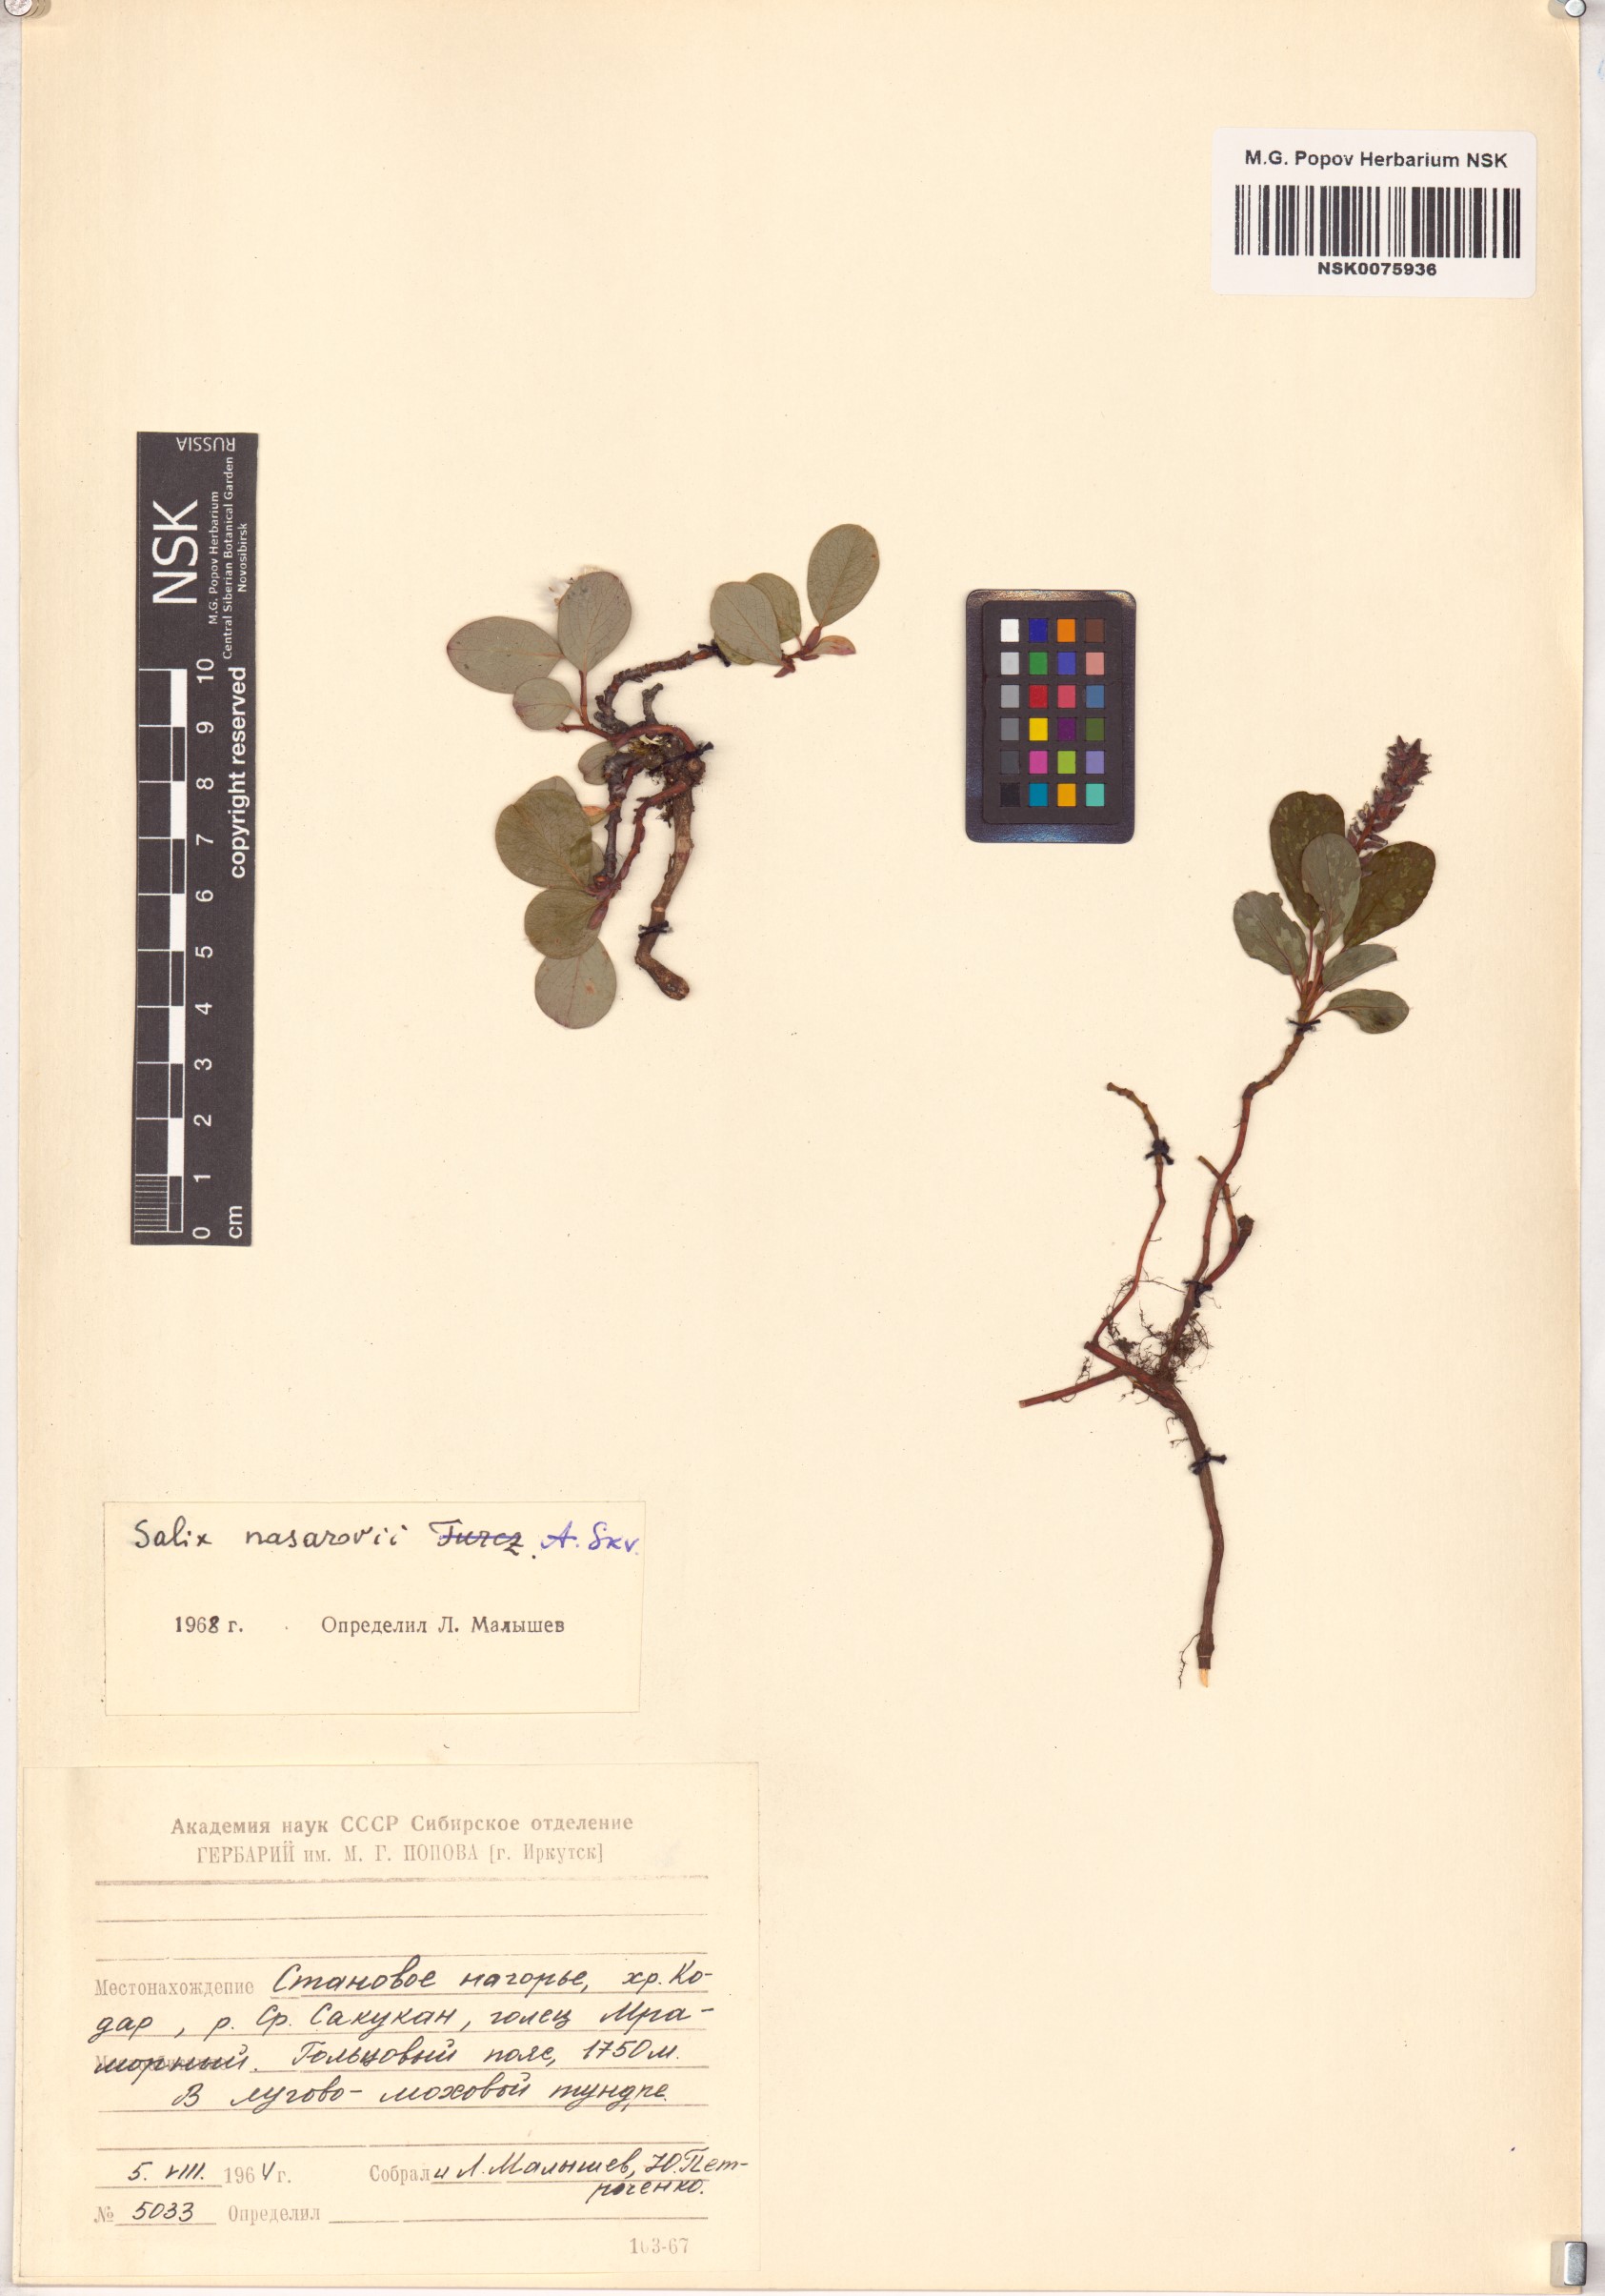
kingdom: Plantae
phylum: Tracheophyta
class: Magnoliopsida
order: Malpighiales
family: Salicaceae
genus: Salix
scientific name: Salix nasarovii
